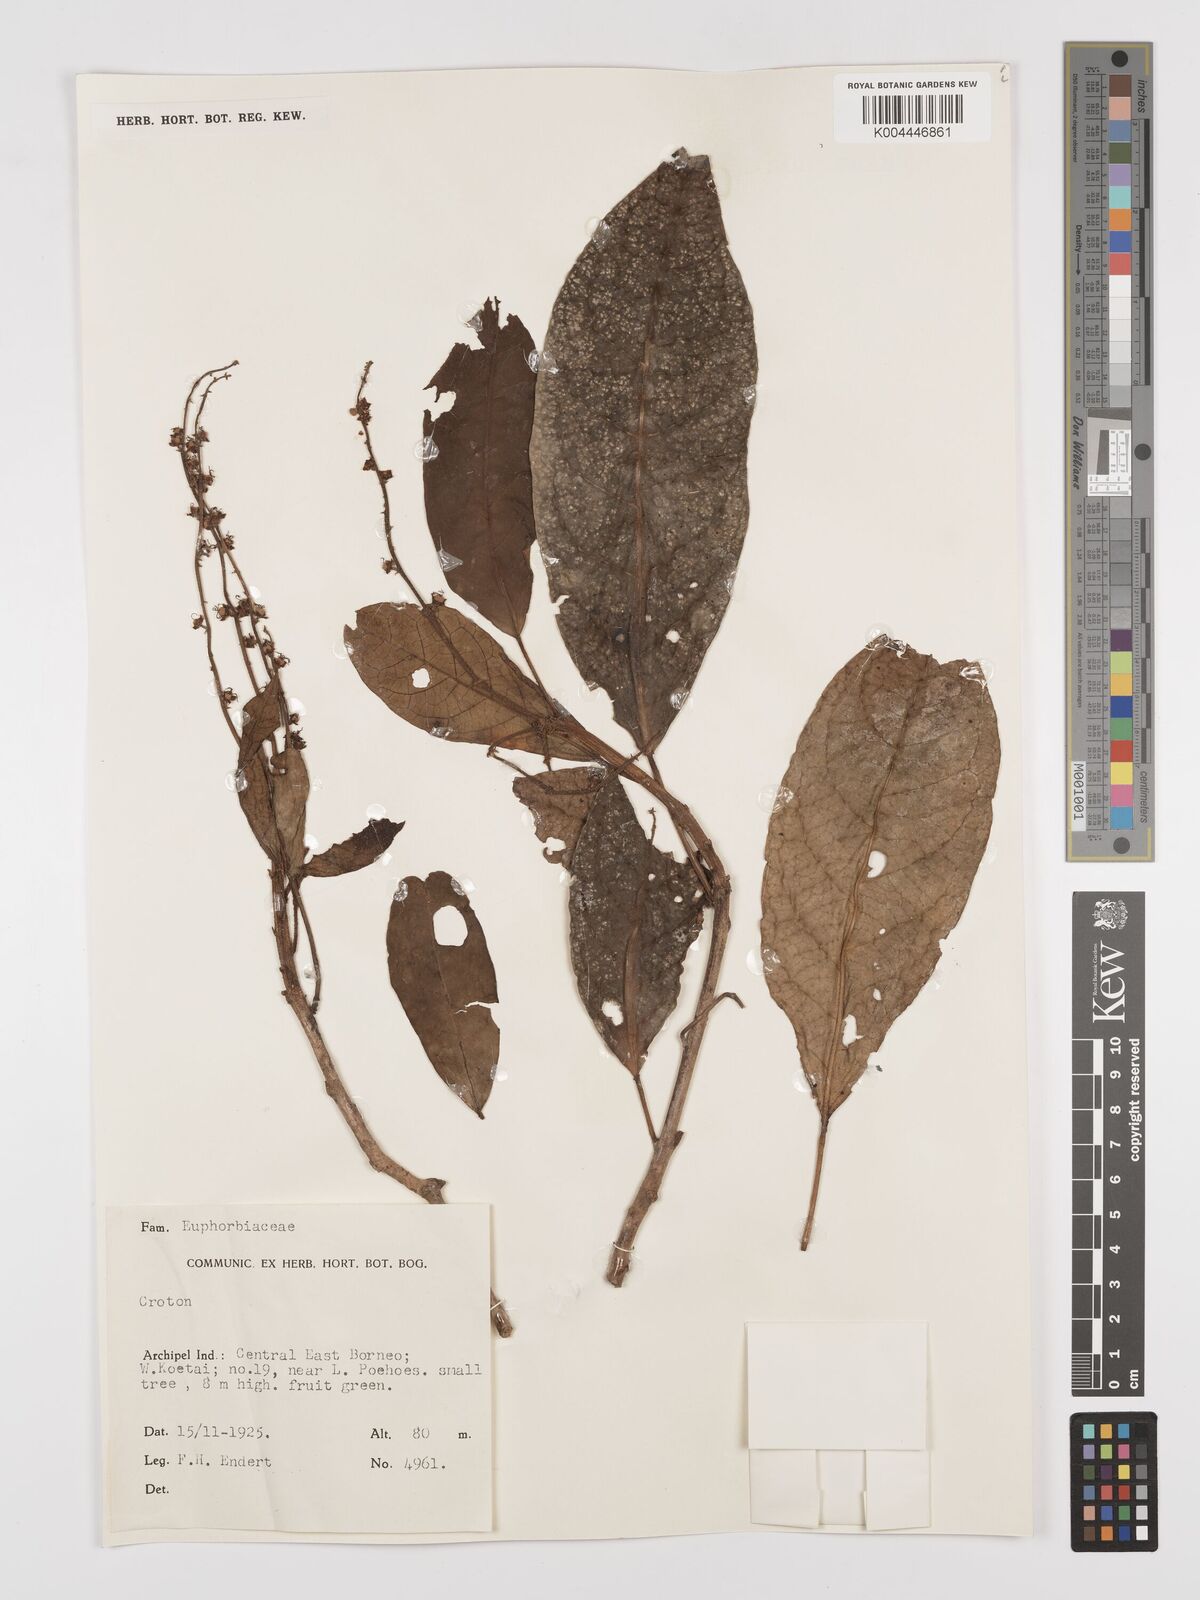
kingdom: Plantae
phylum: Tracheophyta
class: Magnoliopsida
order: Malpighiales
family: Euphorbiaceae
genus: Croton
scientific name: Croton oblongus
